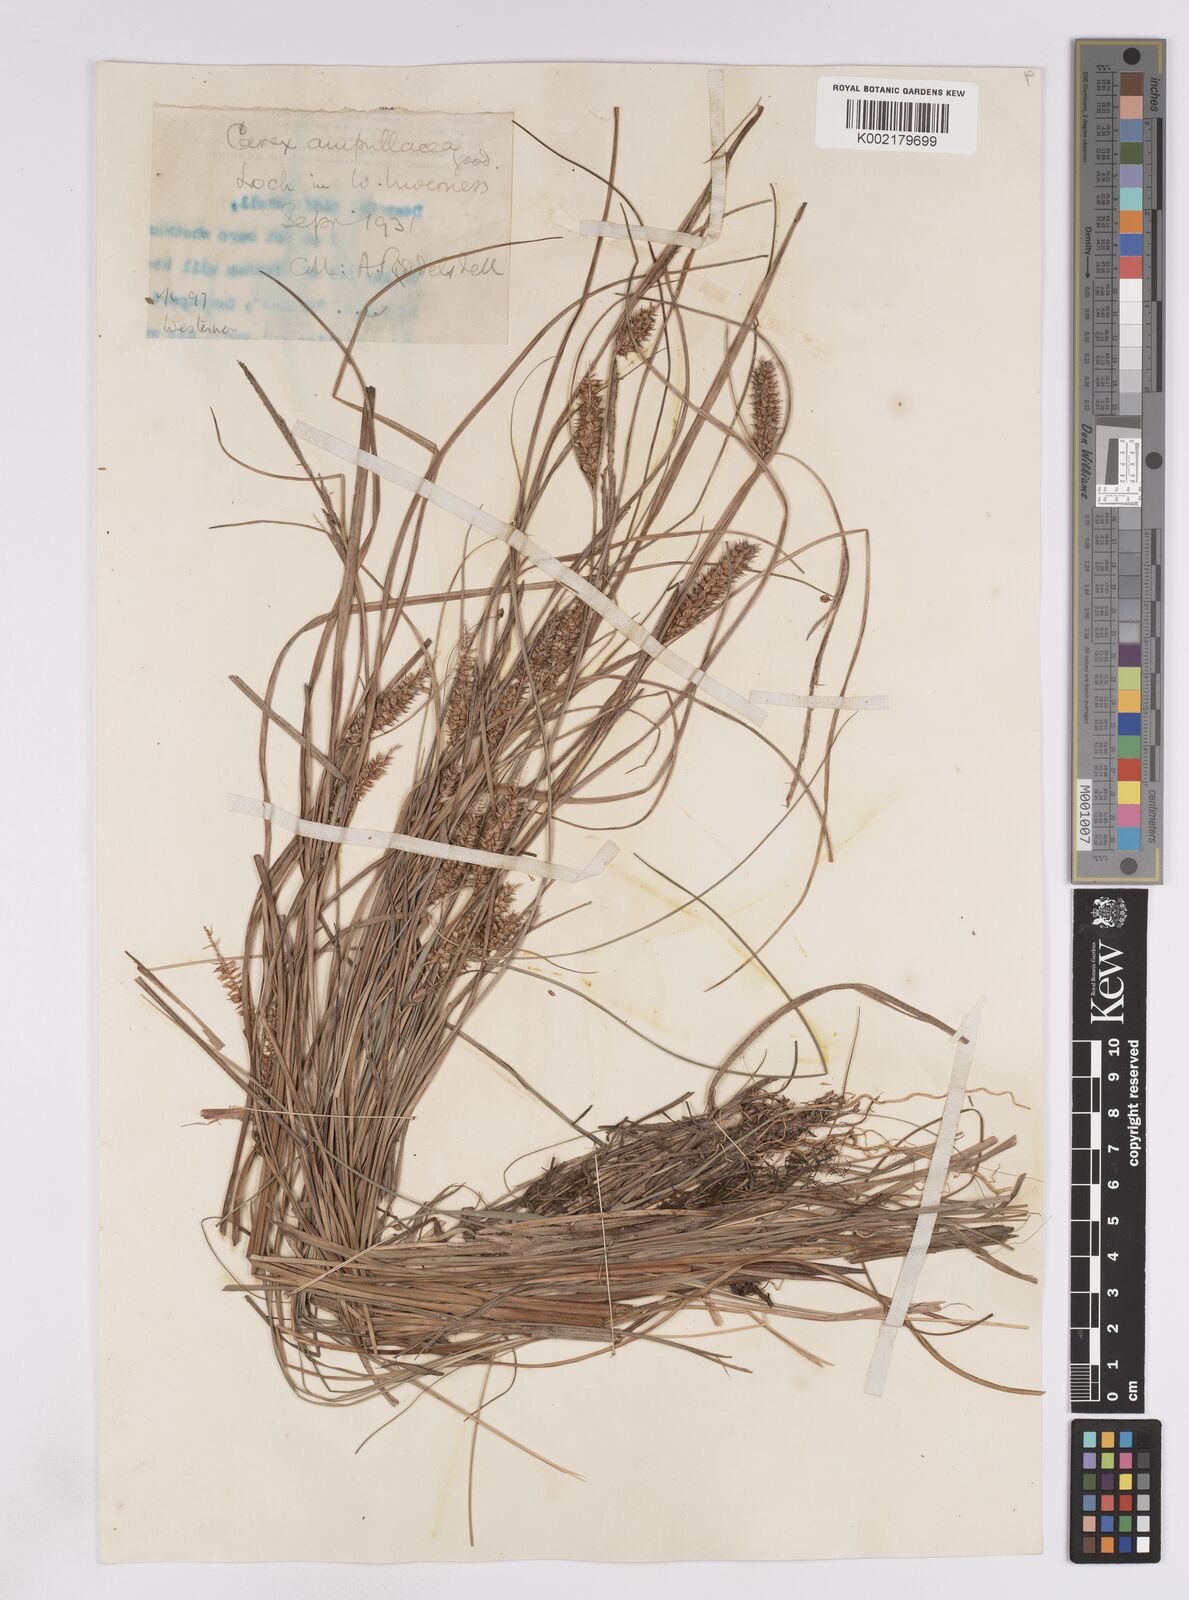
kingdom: Plantae
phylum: Tracheophyta
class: Liliopsida
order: Poales
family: Cyperaceae
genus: Carex
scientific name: Carex rostrata
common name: Bottle sedge
